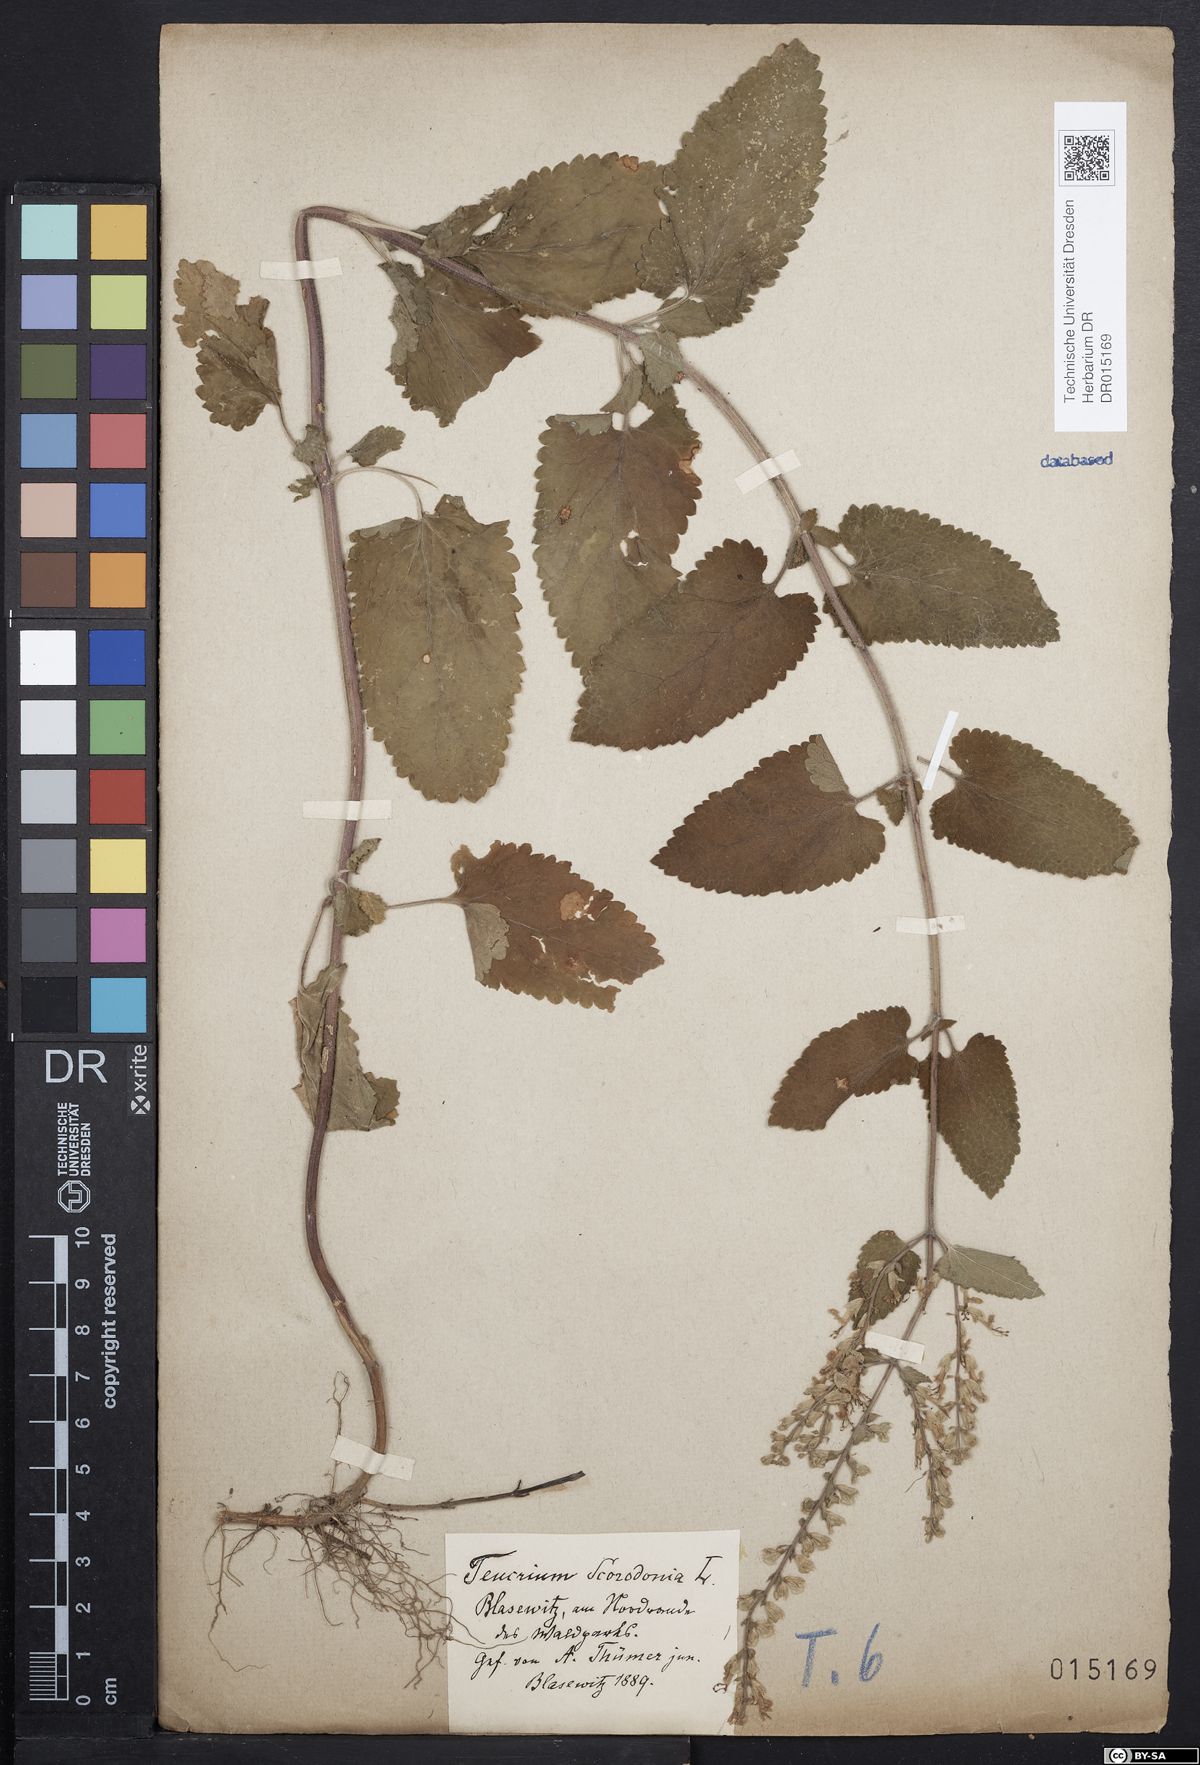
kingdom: Plantae
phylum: Tracheophyta
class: Magnoliopsida
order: Lamiales
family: Lamiaceae
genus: Teucrium
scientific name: Teucrium scorodonia
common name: Woodland germander
